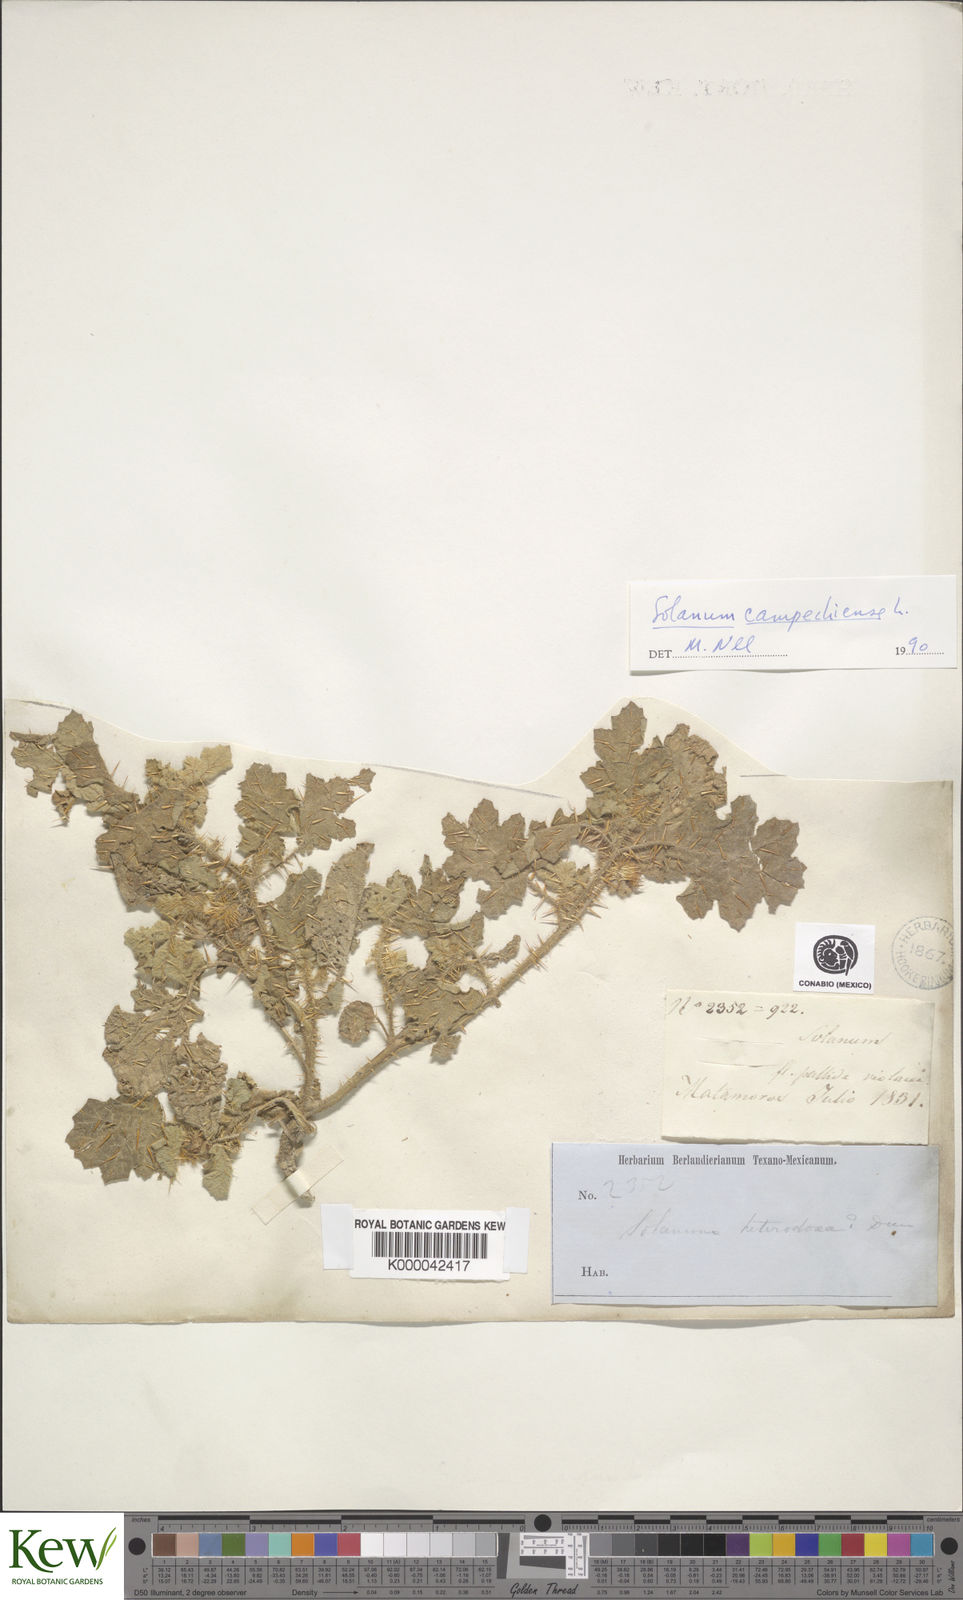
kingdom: Plantae
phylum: Tracheophyta
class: Magnoliopsida
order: Solanales
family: Solanaceae
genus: Solanum
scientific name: Solanum campechiense
